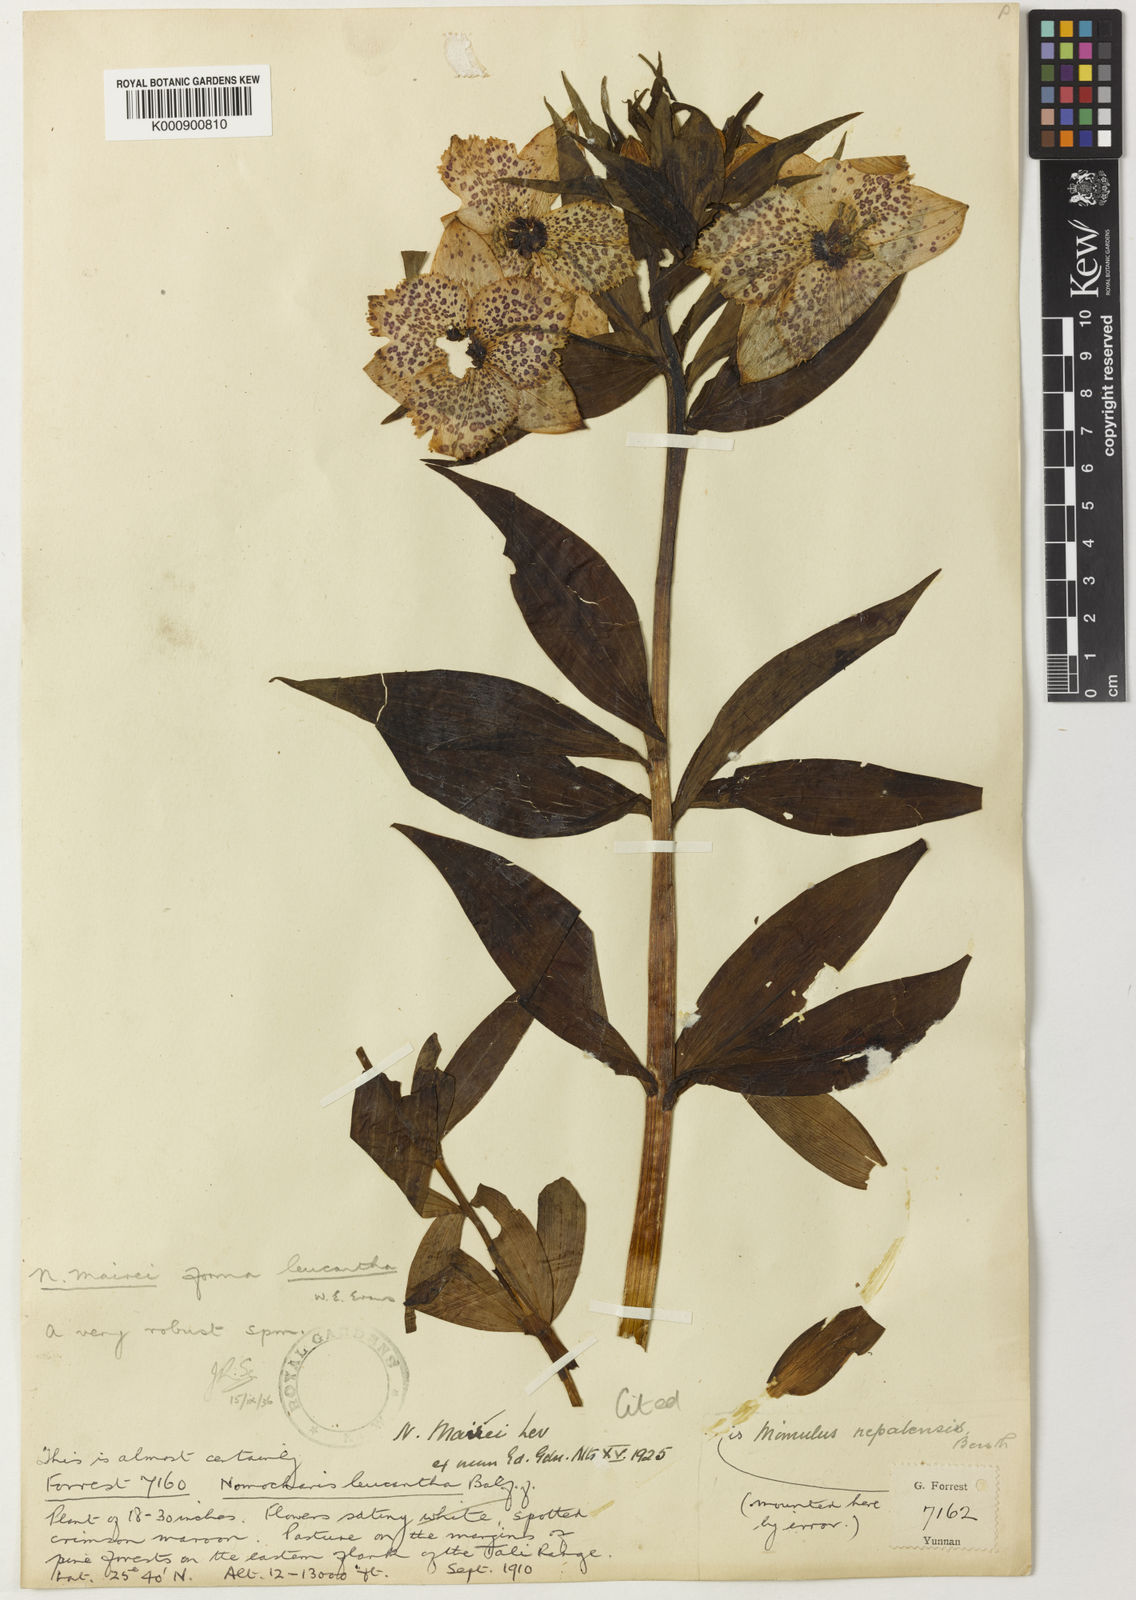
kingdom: Plantae
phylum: Tracheophyta
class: Liliopsida
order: Liliales
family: Liliaceae
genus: Lilium
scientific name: Lilium pardanthinum
